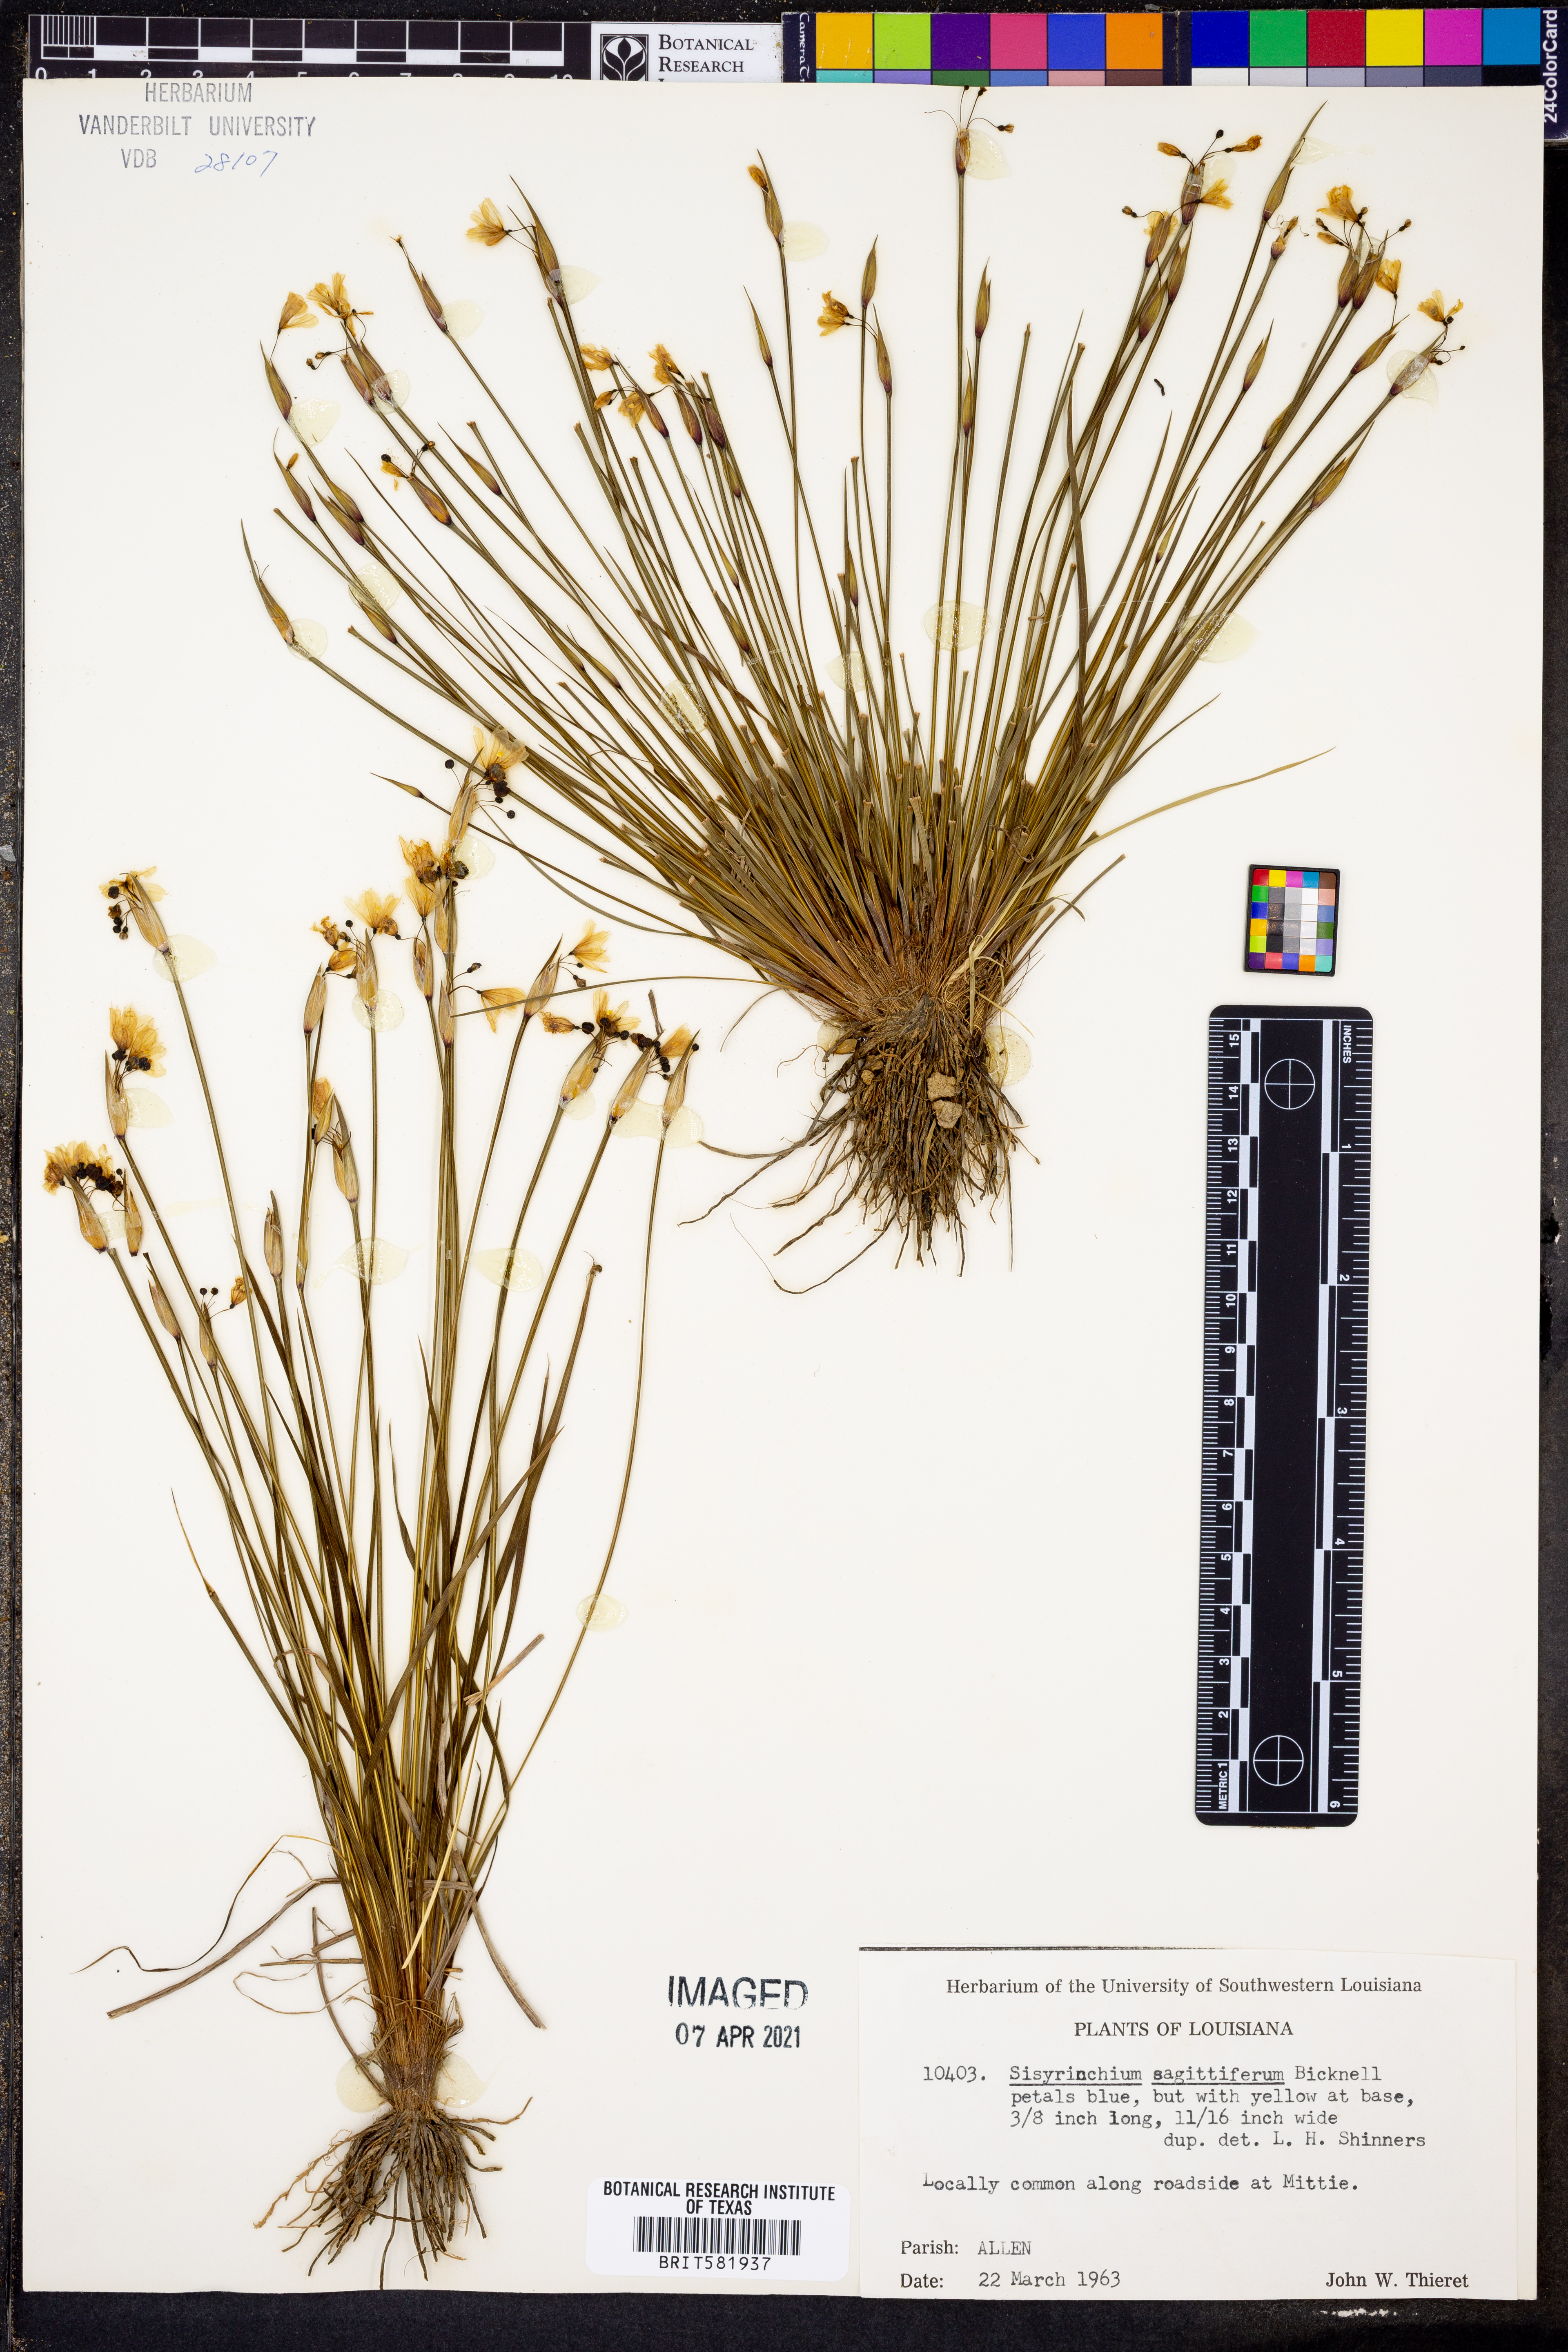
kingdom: Plantae
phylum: Tracheophyta
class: Liliopsida
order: Asparagales
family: Iridaceae
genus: Sisyrinchium
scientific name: Sisyrinchium sagittiferum
